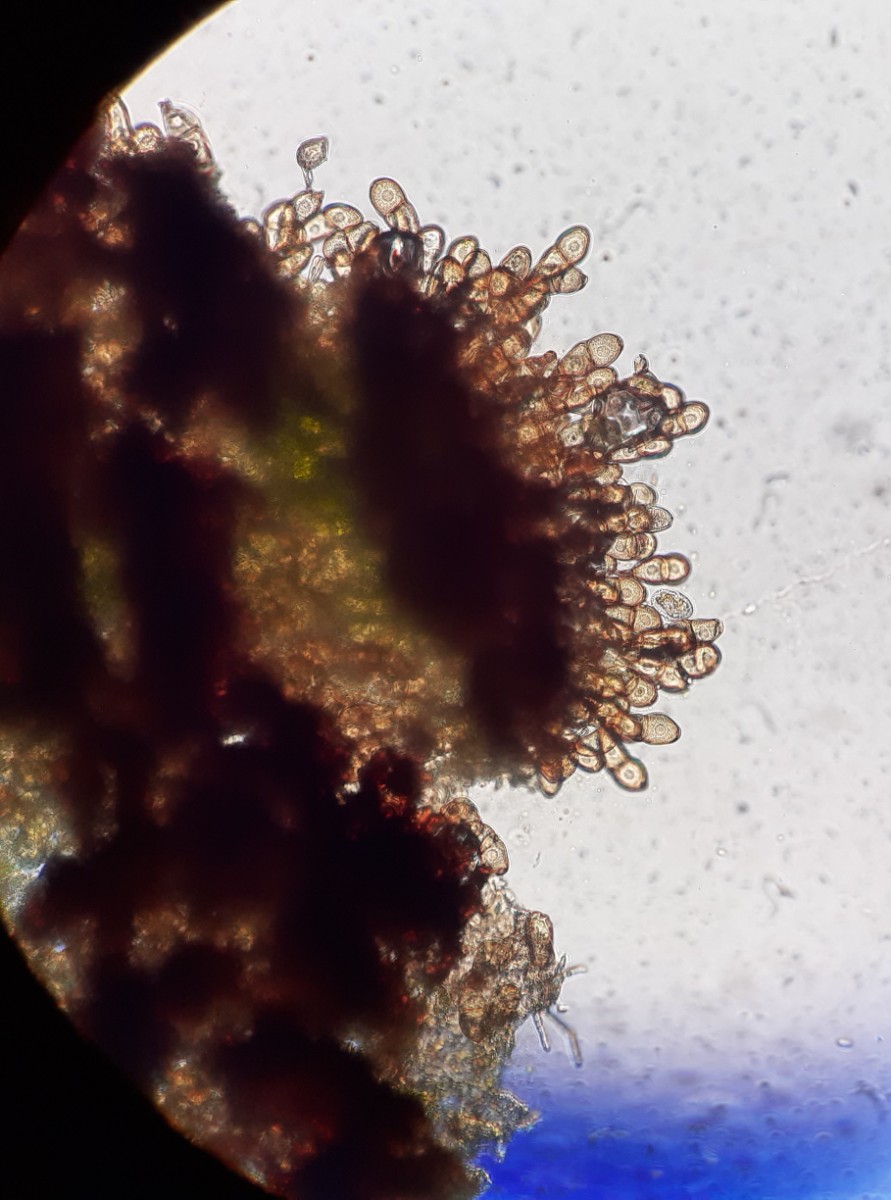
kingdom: Fungi
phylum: Basidiomycota
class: Pucciniomycetes
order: Pucciniales
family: Pucciniaceae
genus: Peristemma
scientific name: Peristemma pseudosphaeria
